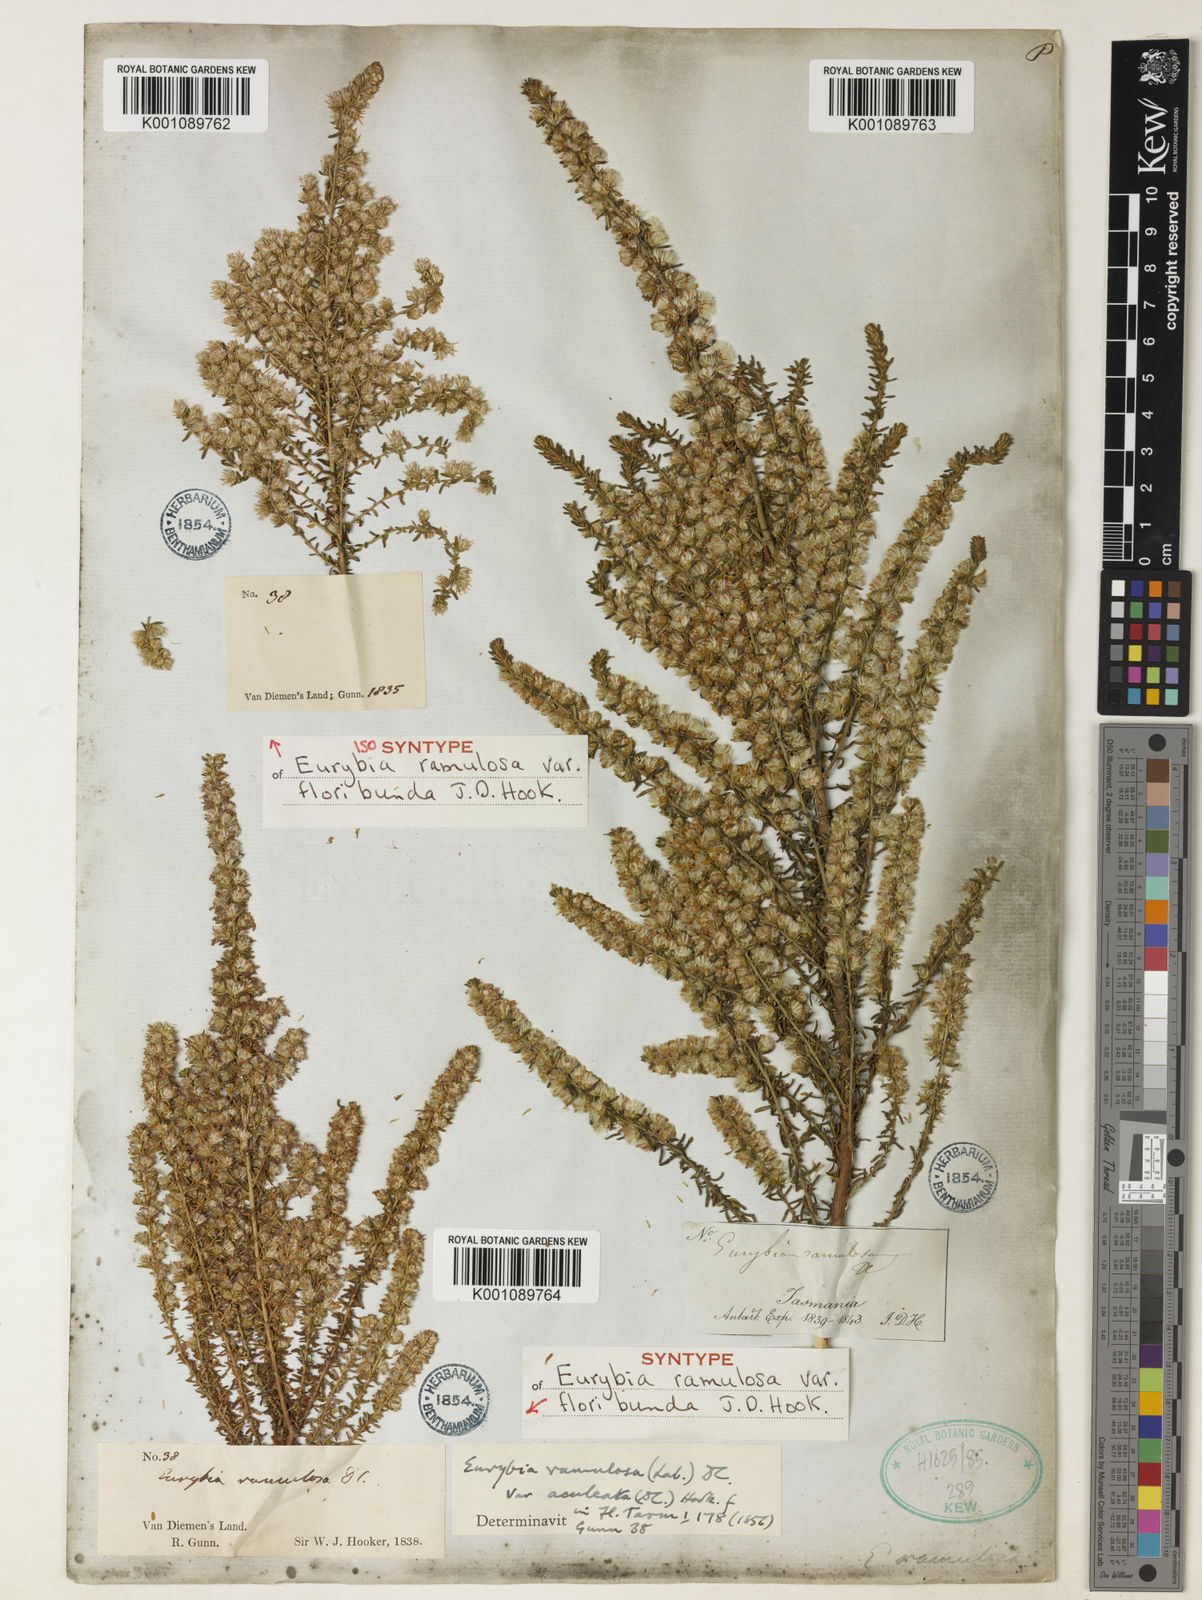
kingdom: Plantae
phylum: Tracheophyta
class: Magnoliopsida
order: Asterales
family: Asteraceae
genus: Olearia
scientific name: Olearia ramulosa
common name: Twiggy daisybush
